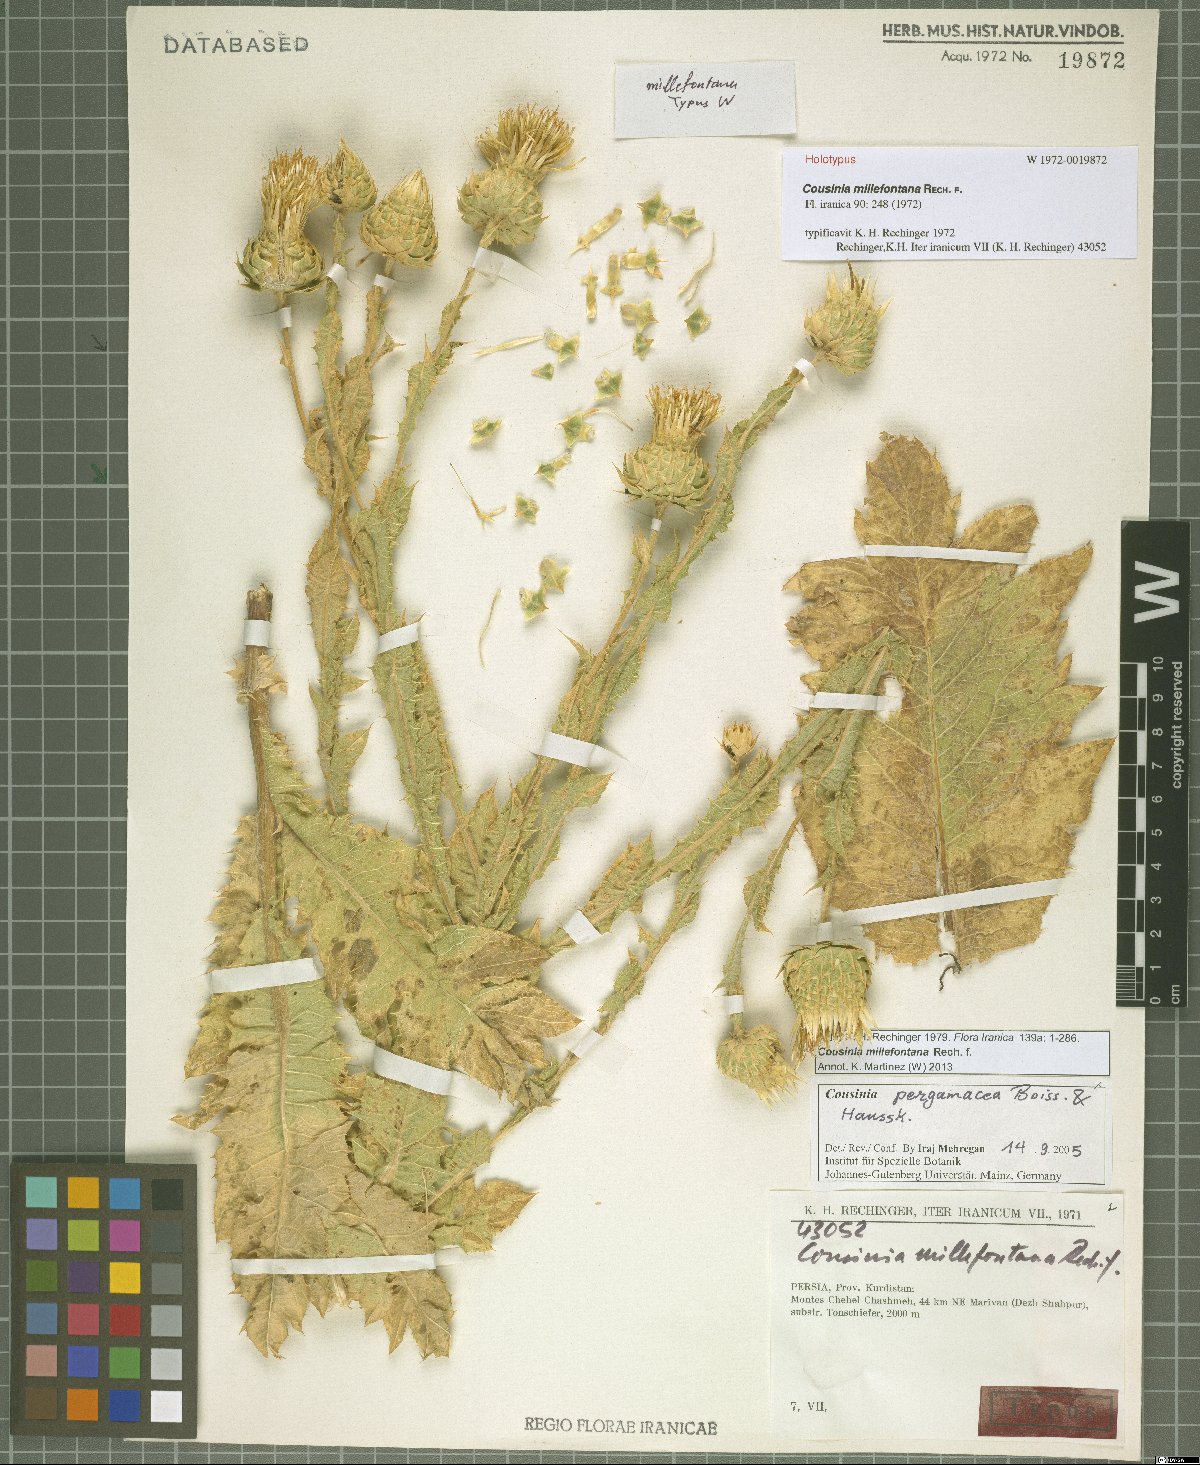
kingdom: Plantae
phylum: Tracheophyta
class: Magnoliopsida
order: Asterales
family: Asteraceae
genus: Cousinia
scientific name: Cousinia millefontana
